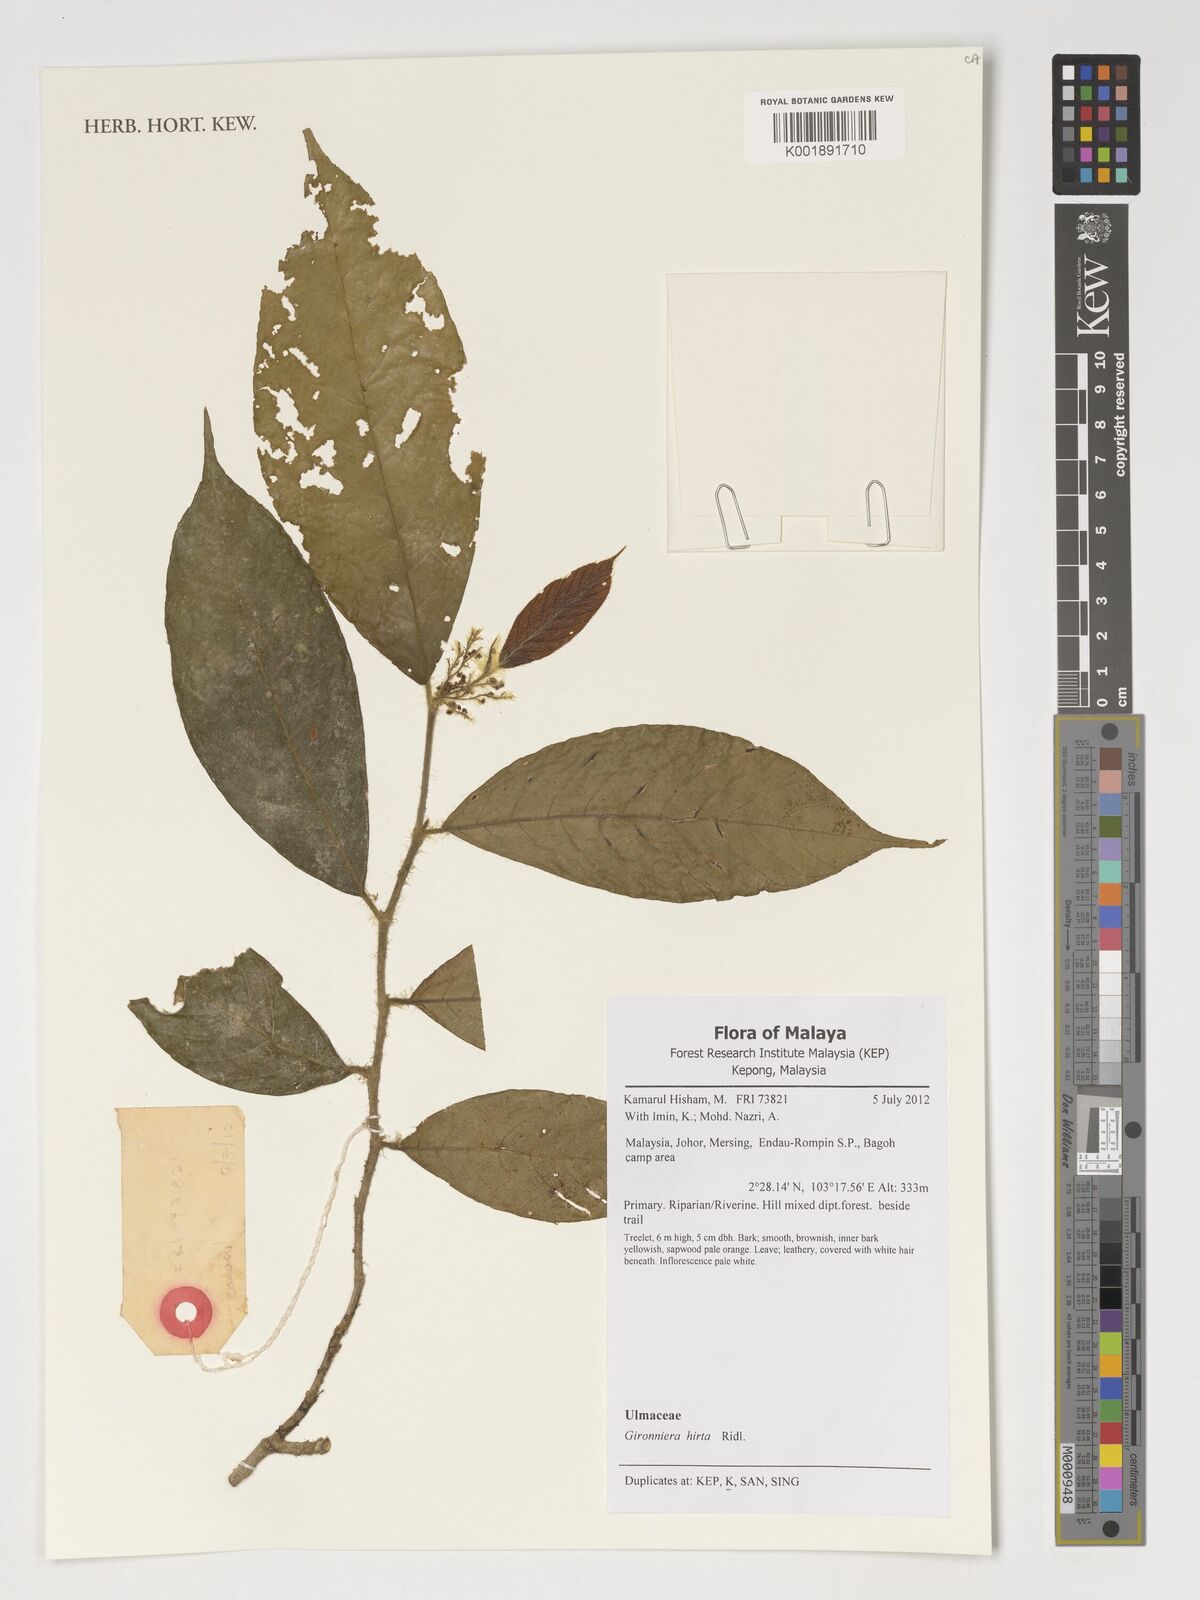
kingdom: Plantae
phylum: Tracheophyta
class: Magnoliopsida
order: Rosales
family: Cannabaceae
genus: Gironniera
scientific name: Gironniera hirta
